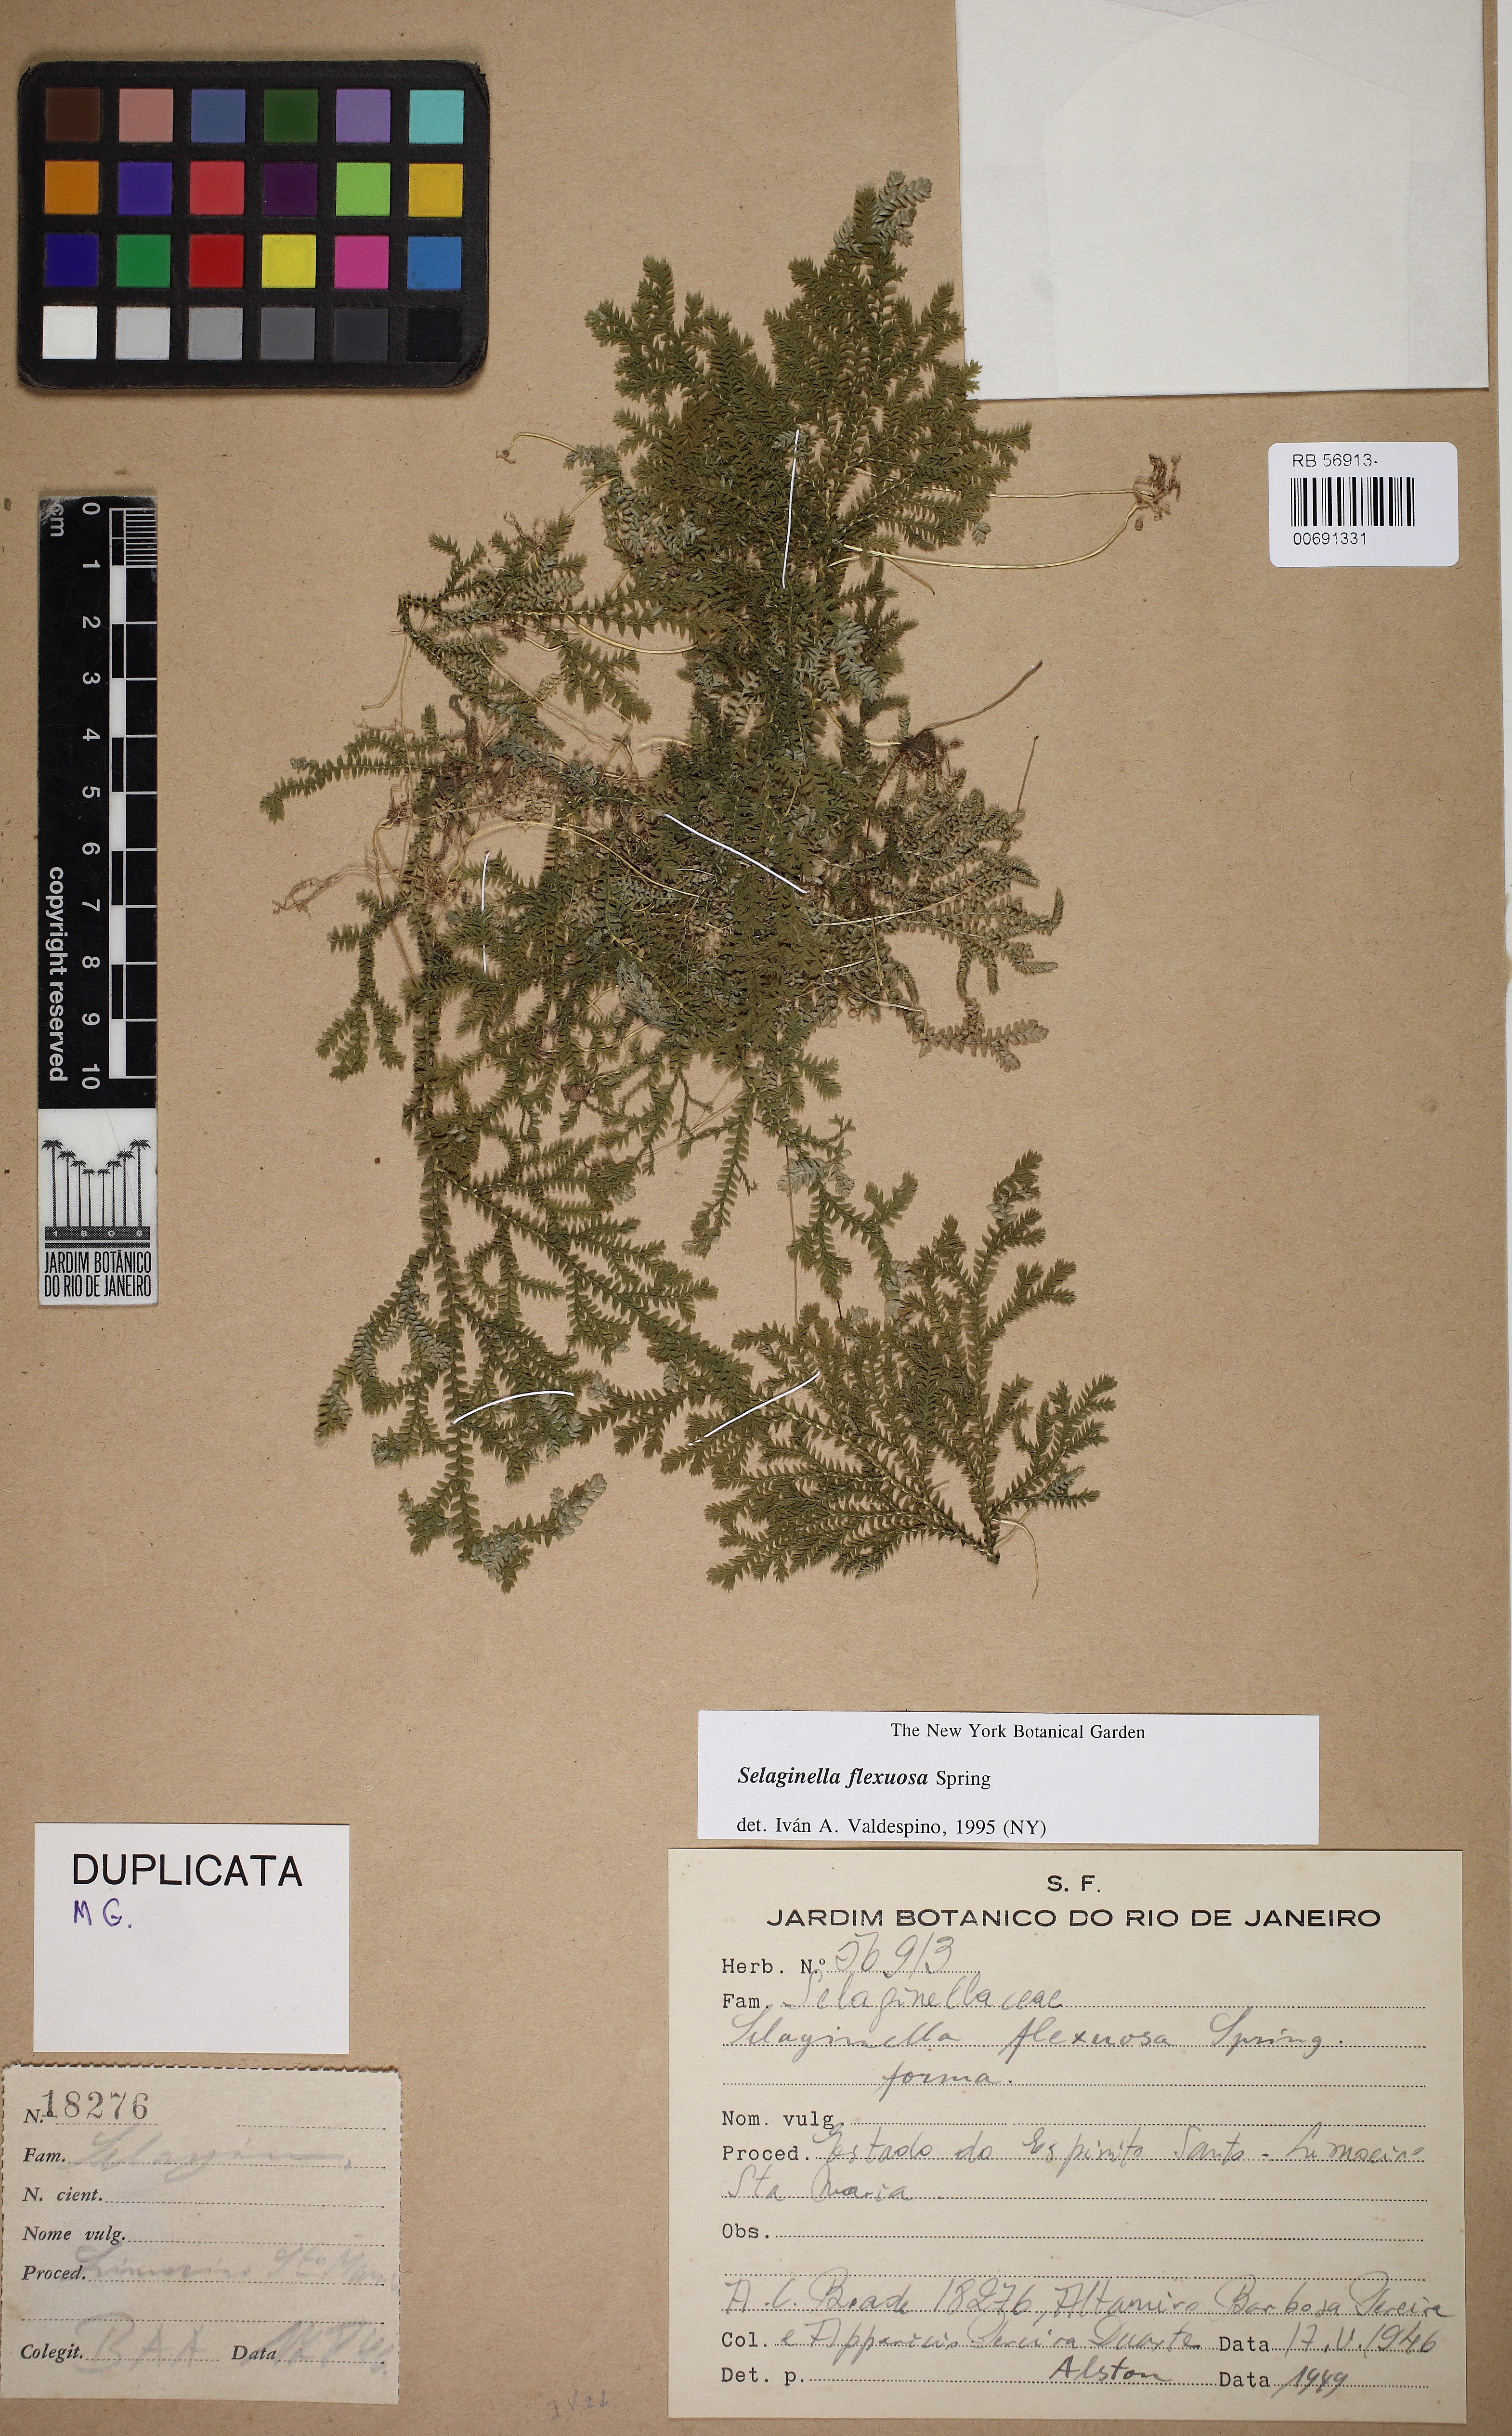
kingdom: Plantae
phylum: Tracheophyta
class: Lycopodiopsida
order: Selaginellales
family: Selaginellaceae
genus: Selaginella
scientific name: Selaginella flexuosa
